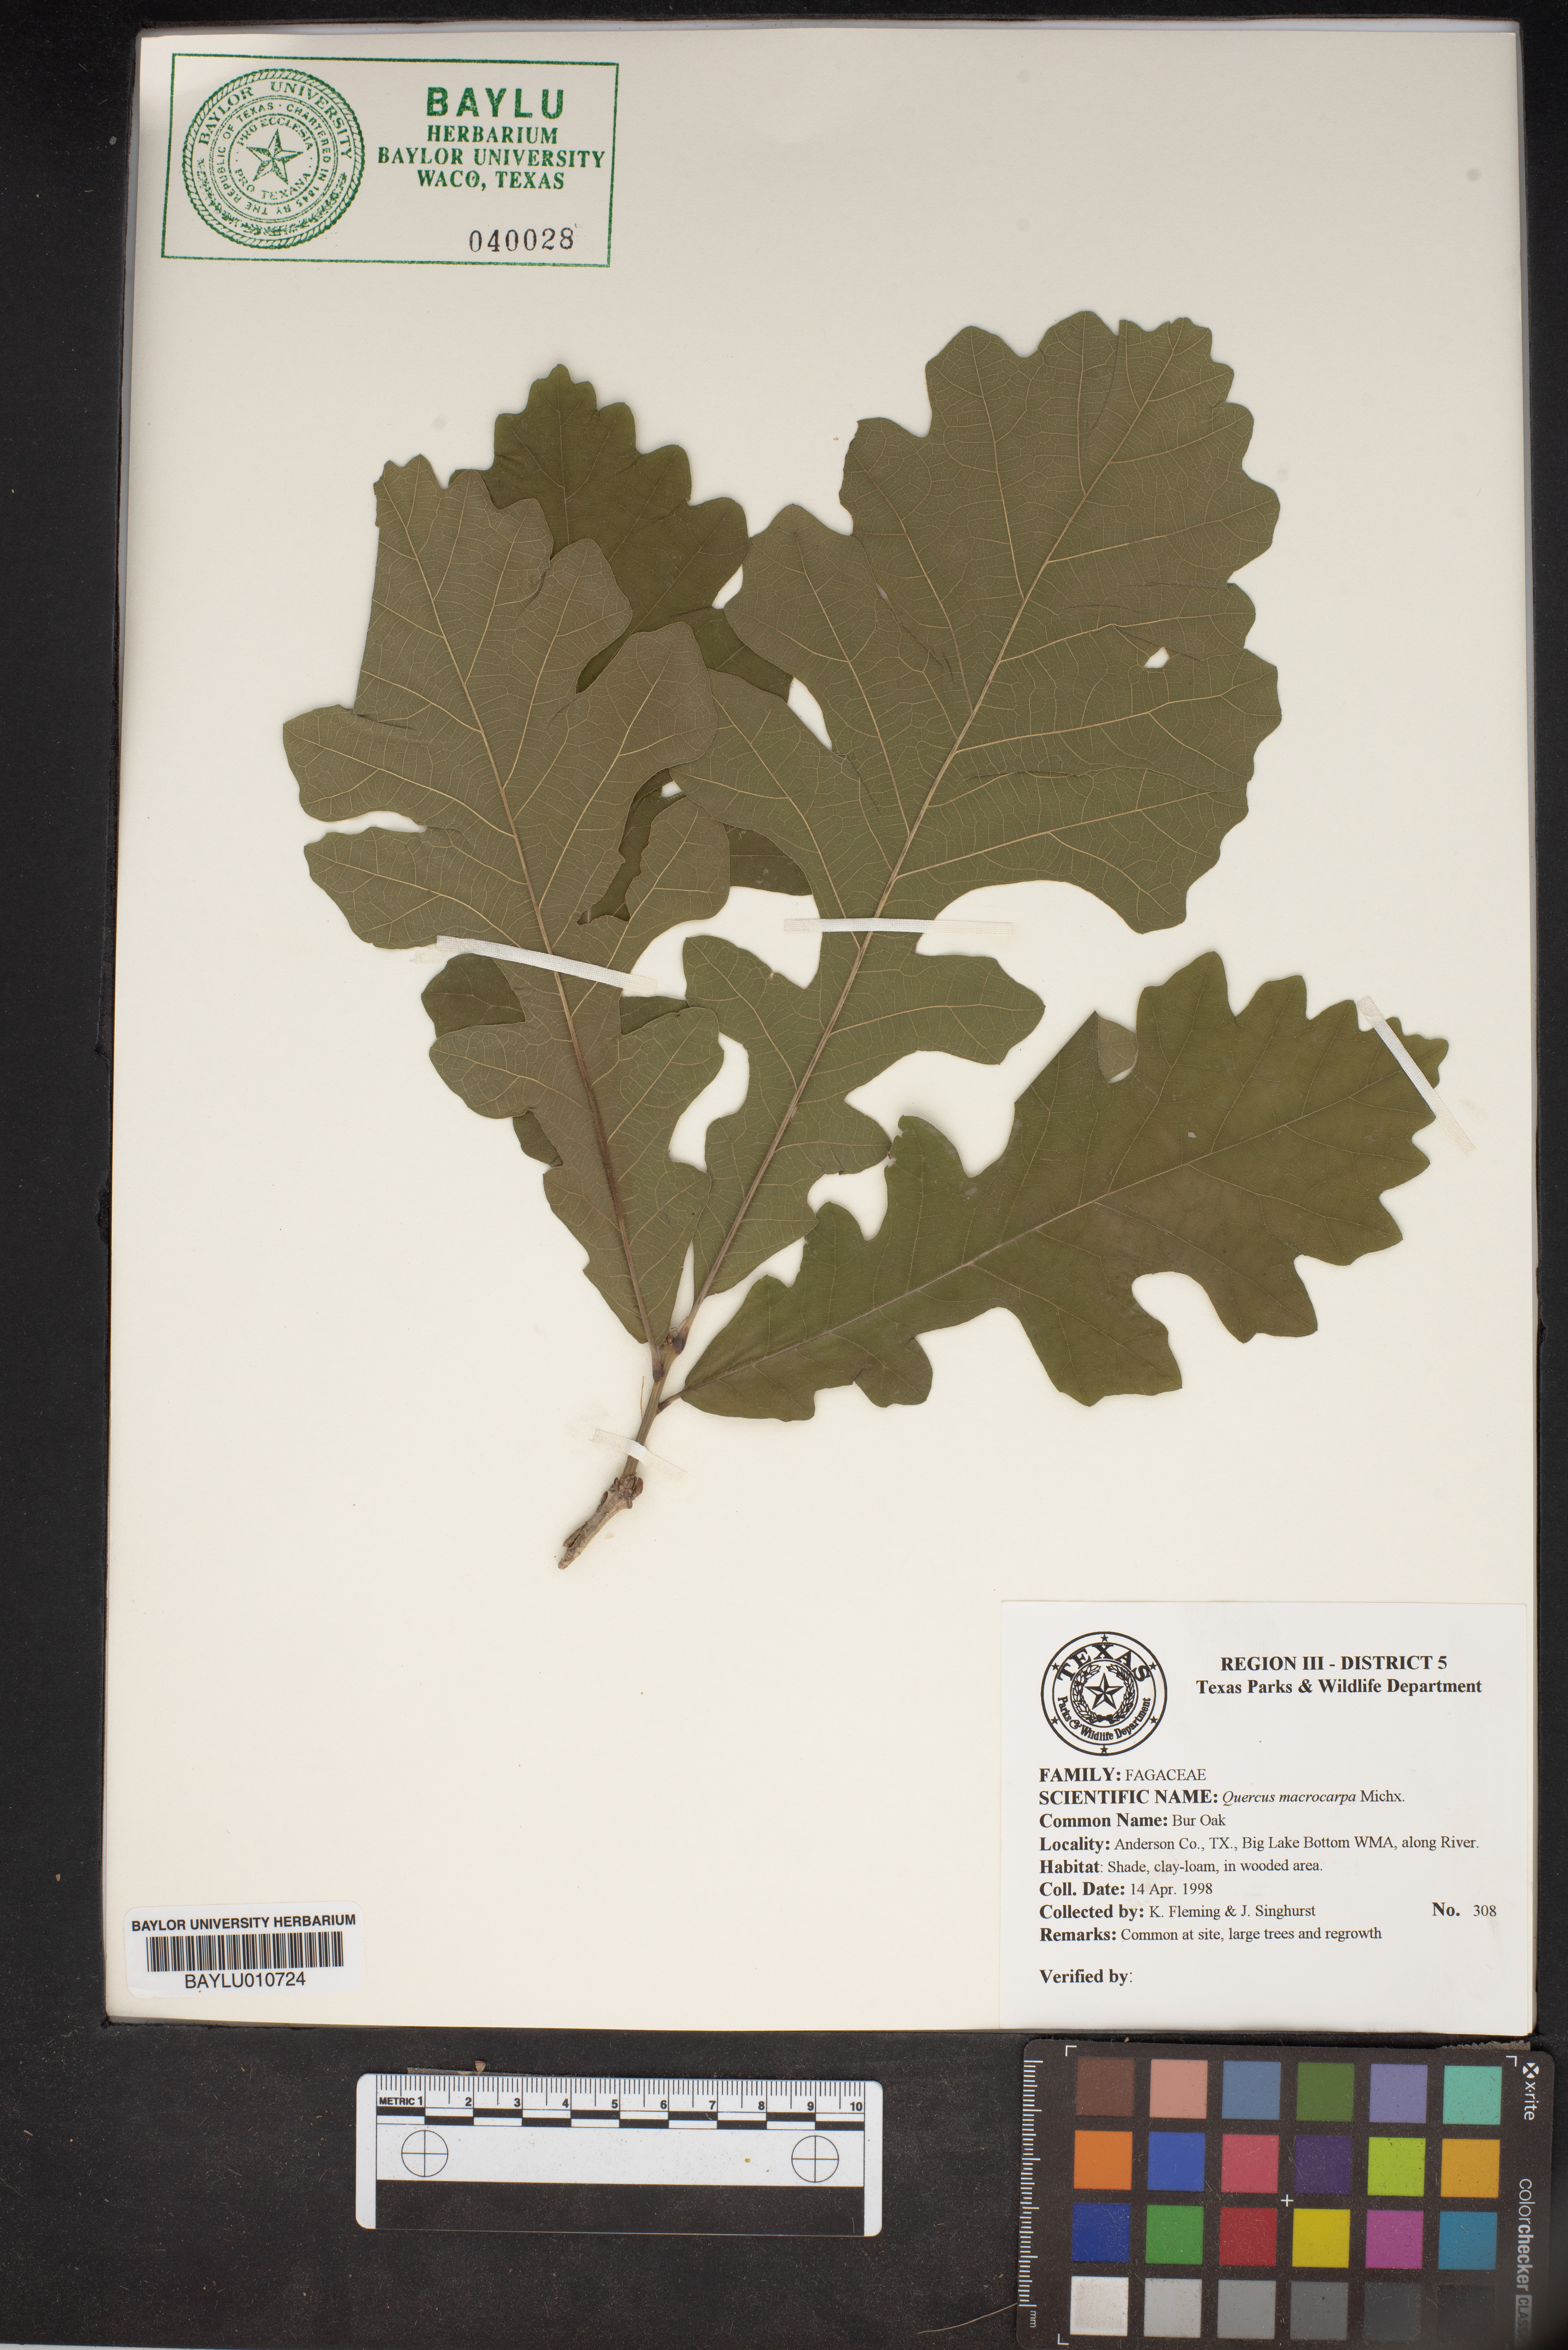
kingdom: Plantae
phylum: Tracheophyta
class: Magnoliopsida
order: Fagales
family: Fagaceae
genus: Quercus
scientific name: Quercus macrocarpa
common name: Bur oak
